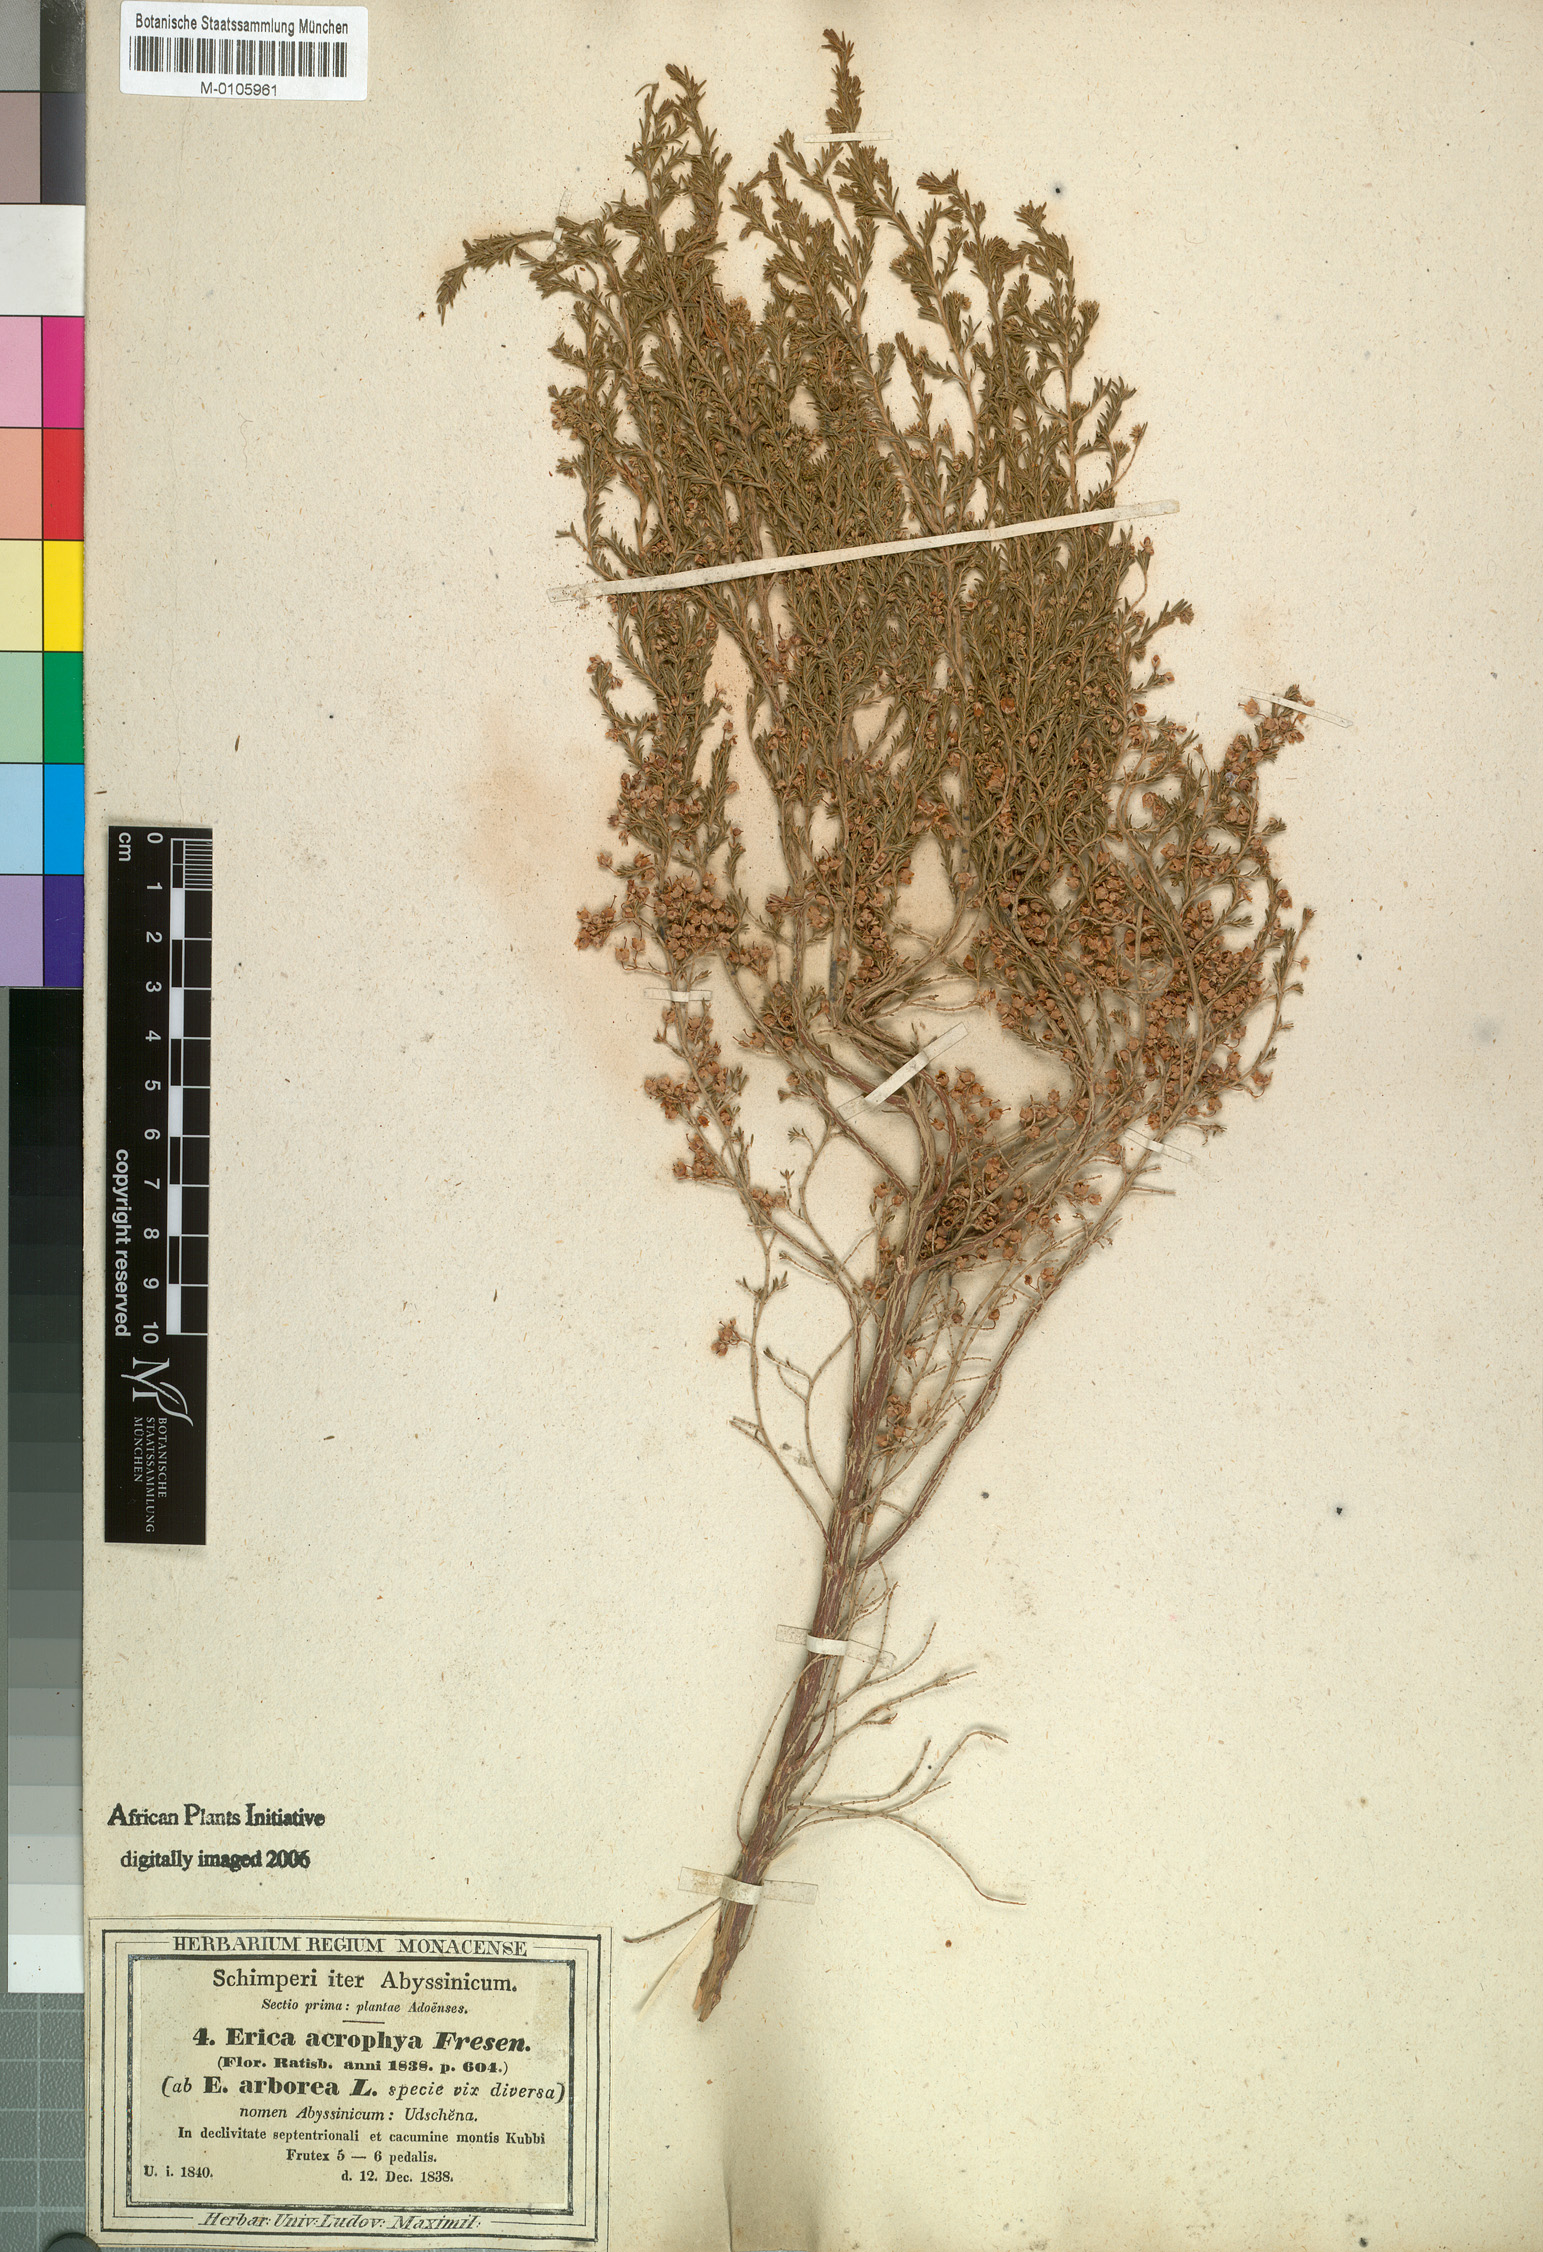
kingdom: Plantae
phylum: Tracheophyta
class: Magnoliopsida
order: Ericales
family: Ericaceae
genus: Erica
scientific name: Erica arborea
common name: Tree heath
